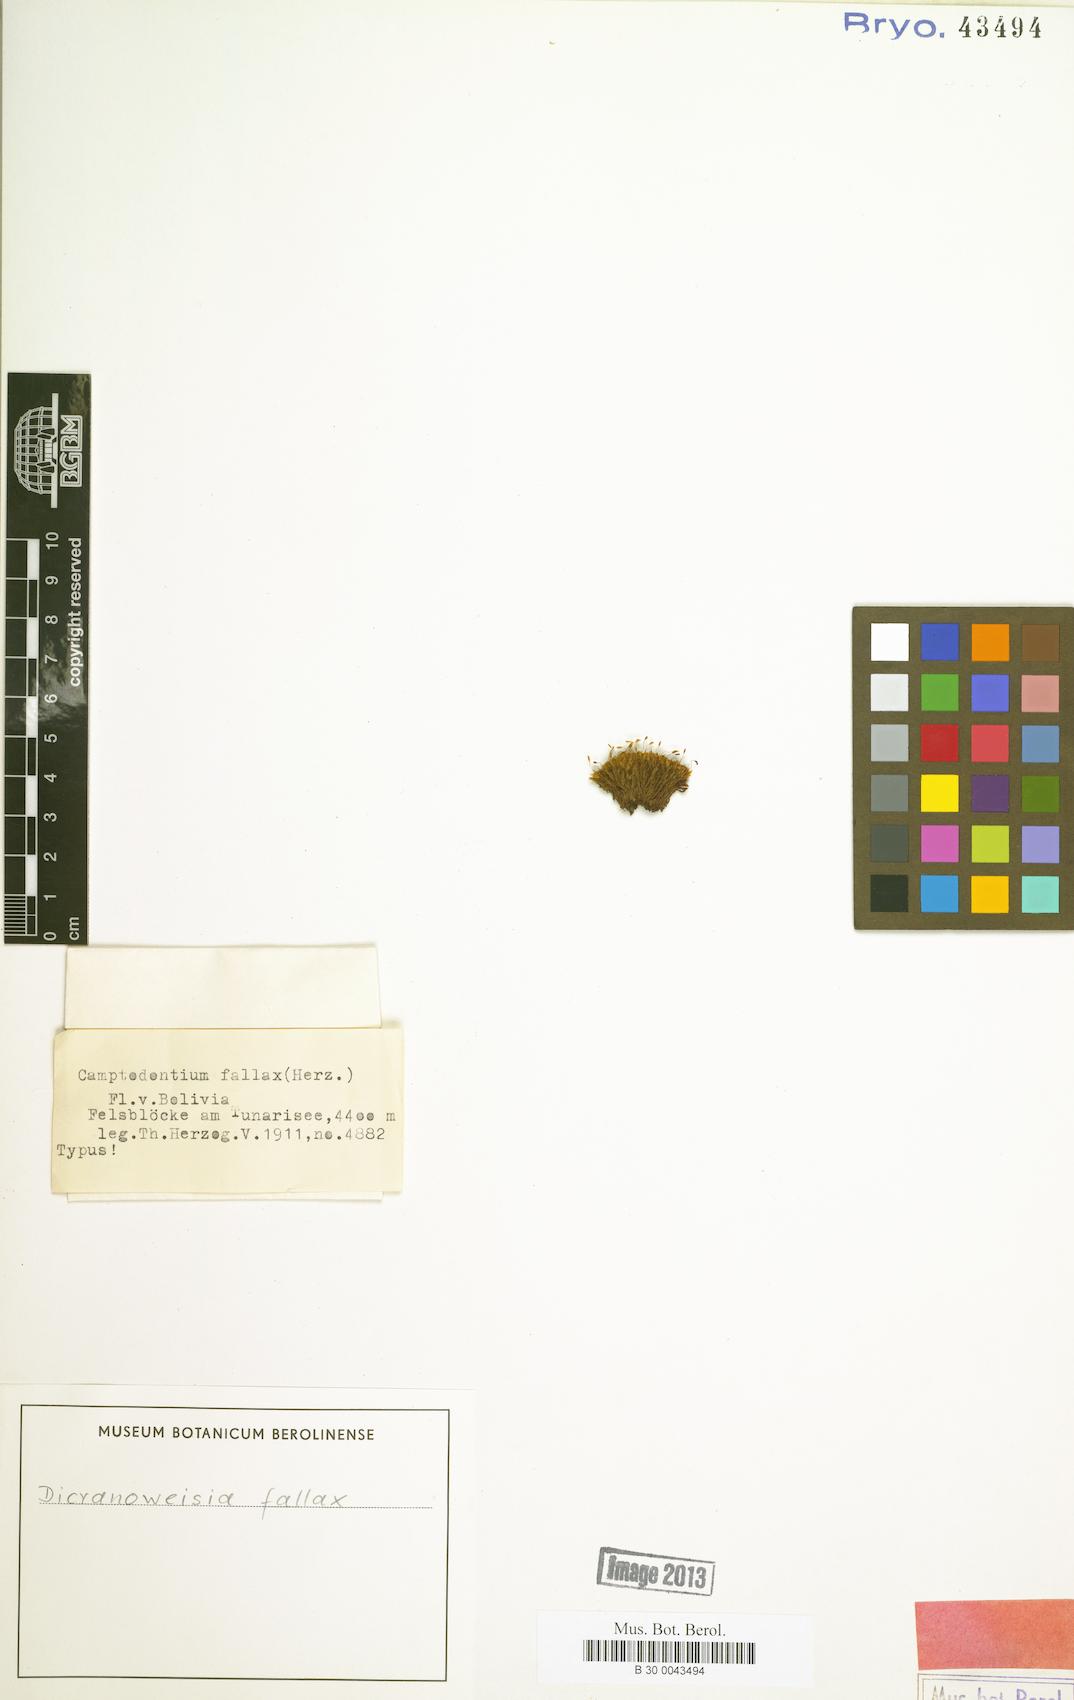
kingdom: Plantae
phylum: Bryophyta
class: Bryopsida
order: Dicranales
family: Rhabdoweisiaceae
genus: Cynodontium
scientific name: Cynodontium peruvianum
